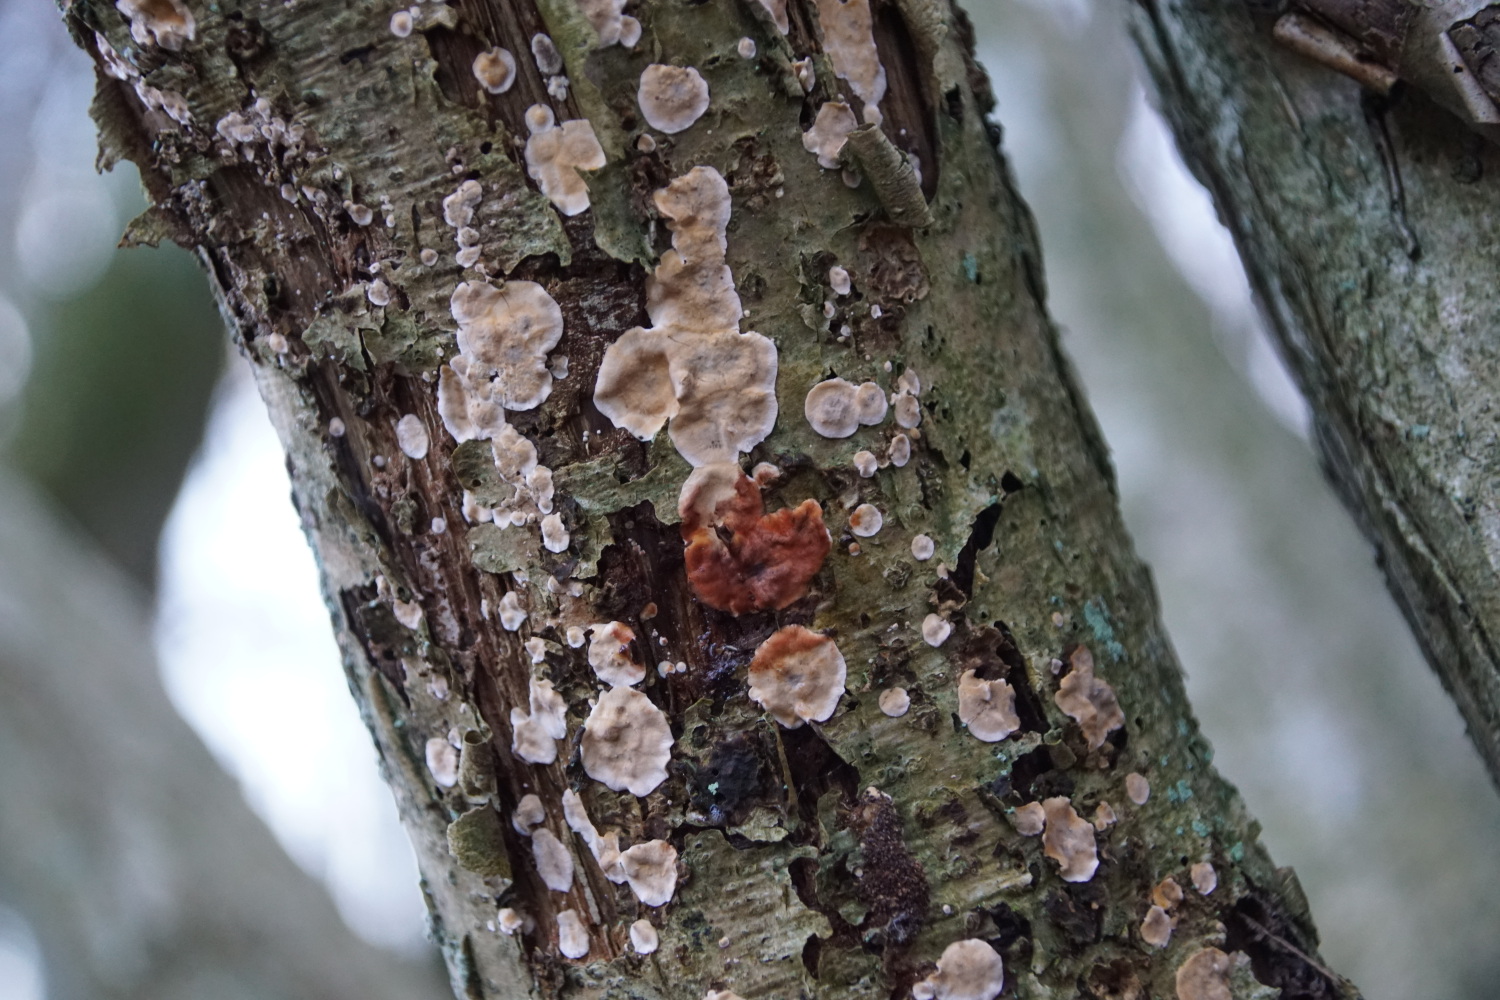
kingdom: Fungi
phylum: Basidiomycota
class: Agaricomycetes
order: Russulales
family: Stereaceae
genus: Stereum
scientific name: Stereum rugosum
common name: rynket lædersvamp
